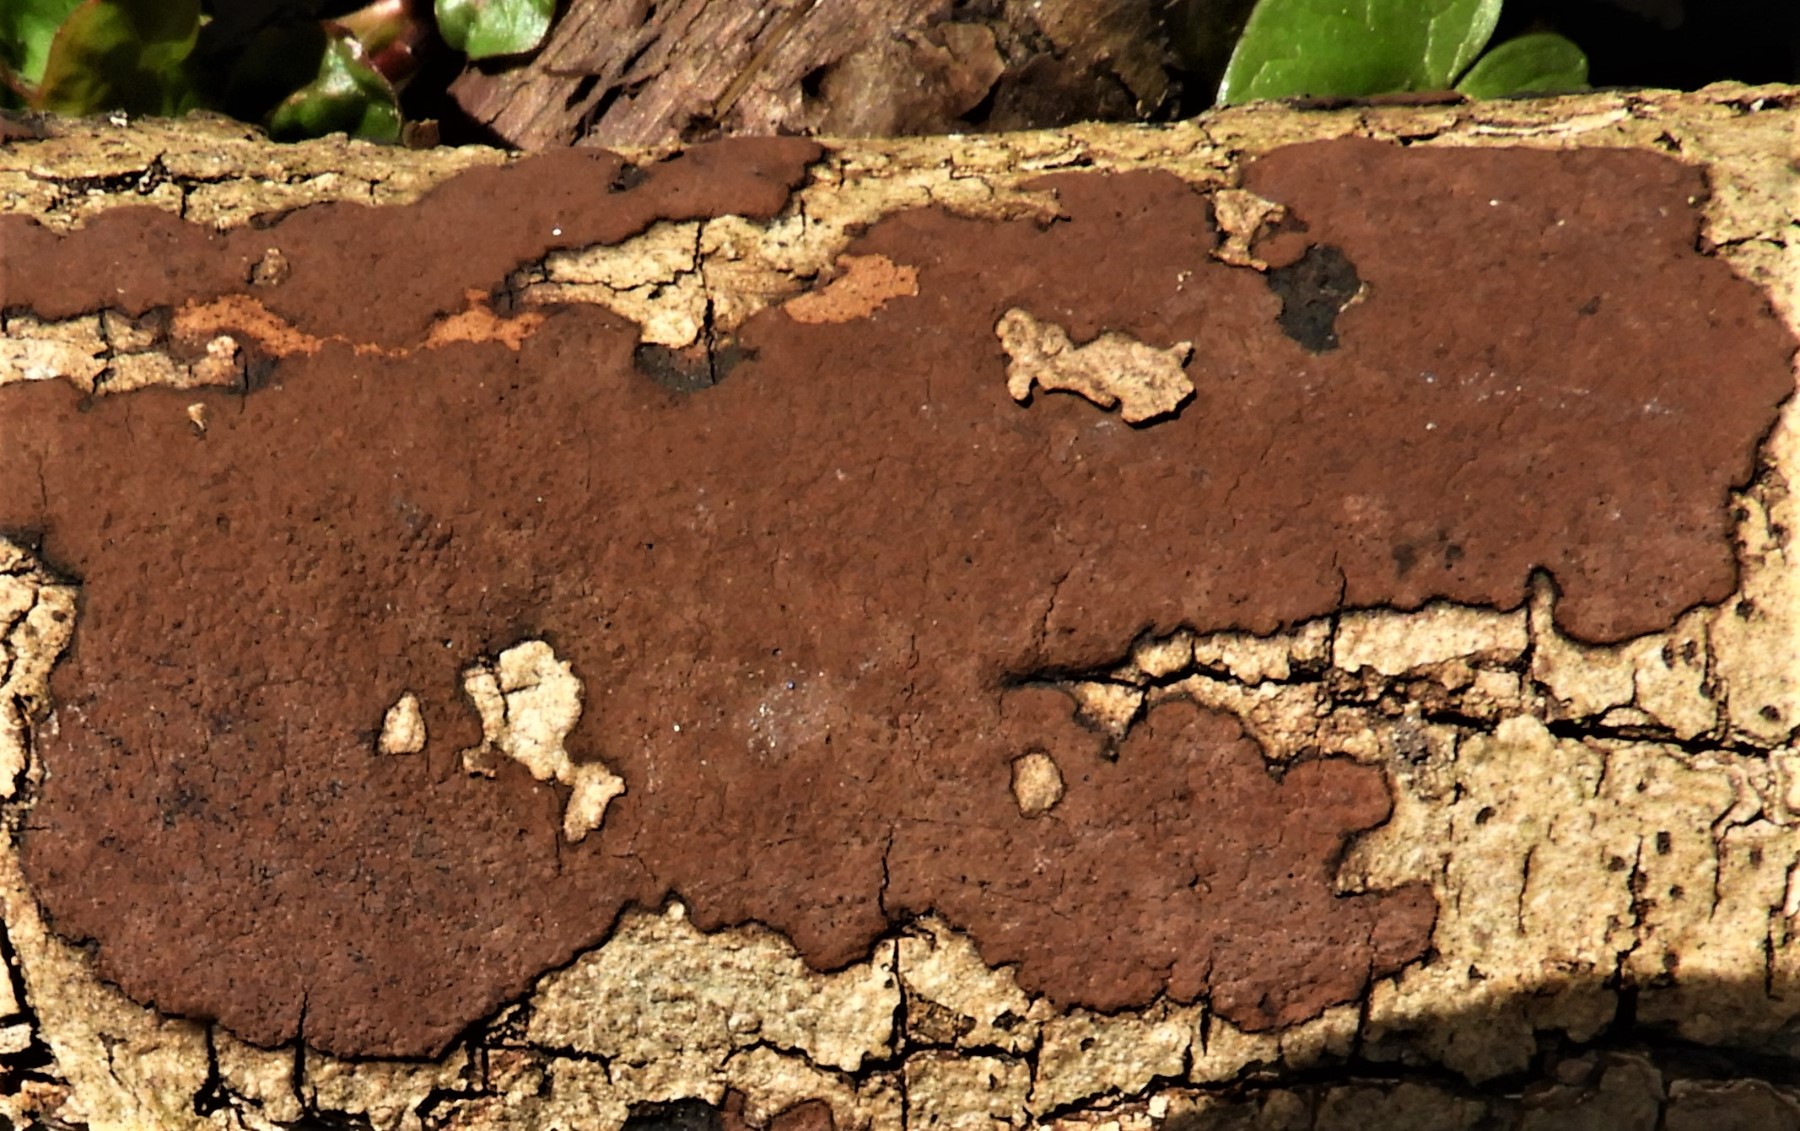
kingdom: Fungi
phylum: Ascomycota
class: Sordariomycetes
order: Xylariales
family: Hypoxylaceae
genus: Hypoxylon
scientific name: Hypoxylon petriniae
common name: nedsænket kulbær
